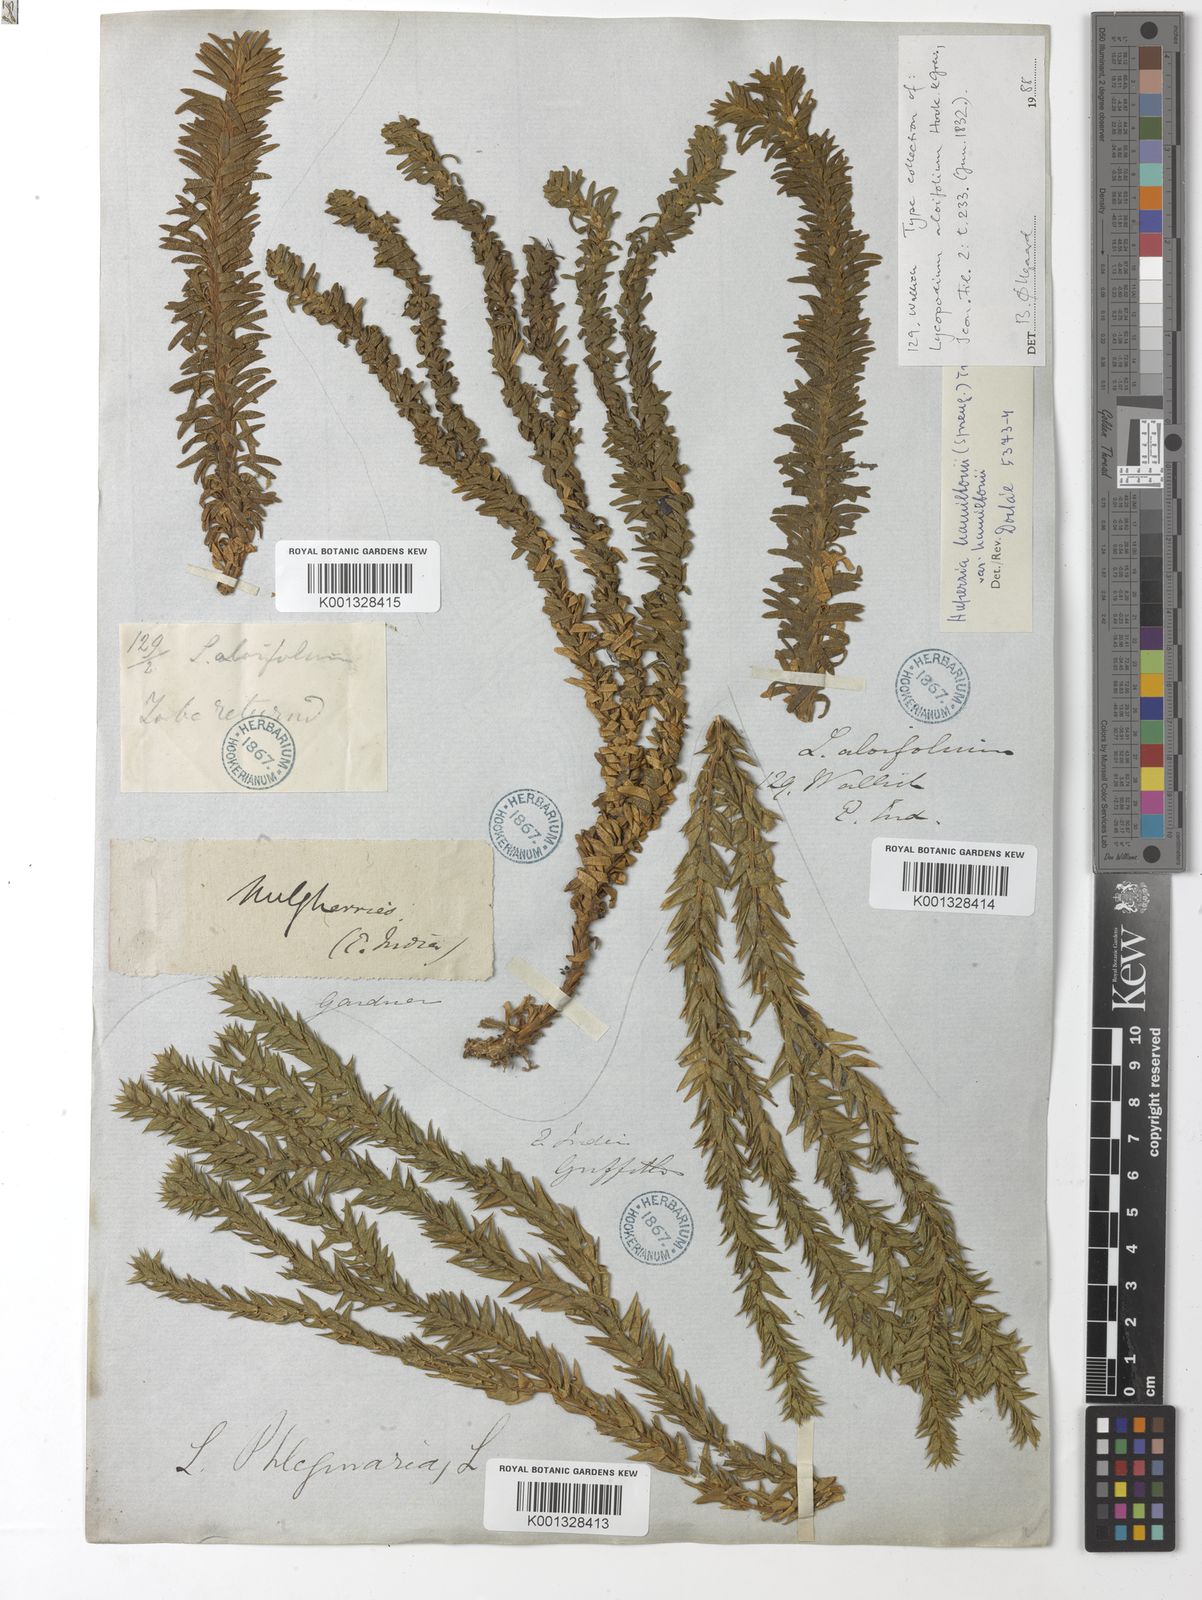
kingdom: Plantae
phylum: Tracheophyta
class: Lycopodiopsida
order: Lycopodiales
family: Lycopodiaceae
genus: Phlegmariurus
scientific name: Phlegmariurus hamiltonii
